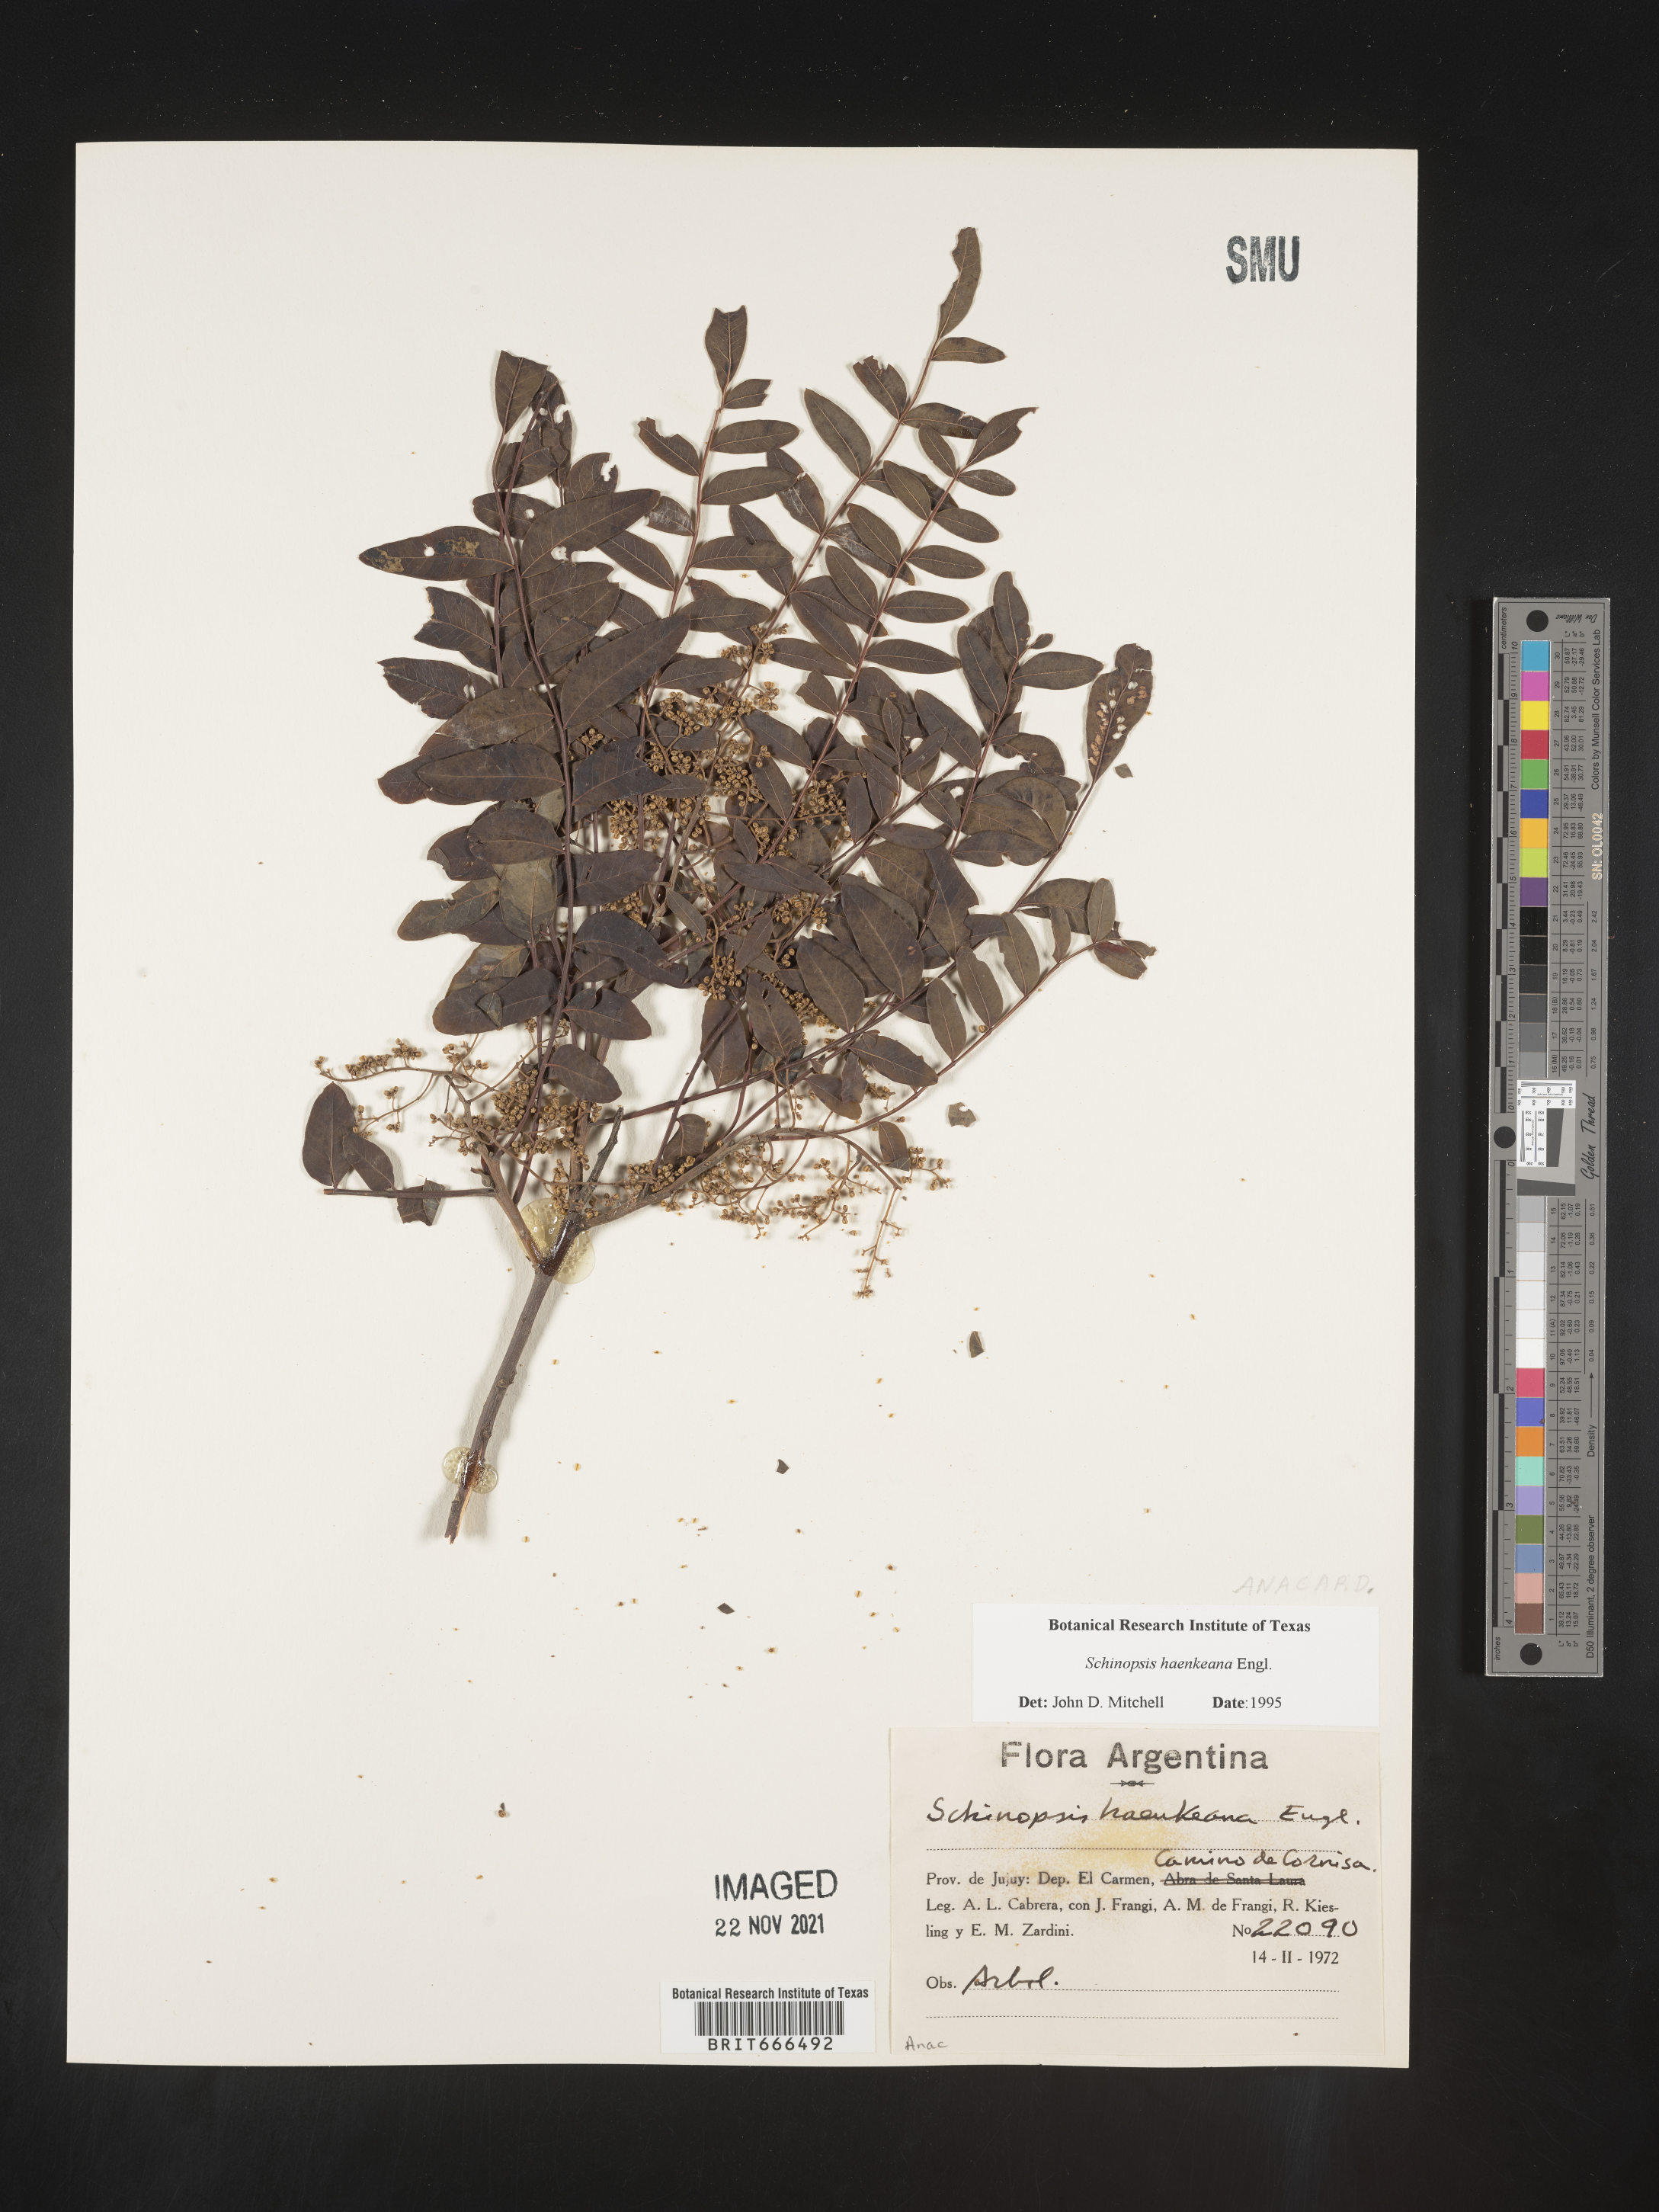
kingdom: Plantae
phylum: Tracheophyta
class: Magnoliopsida
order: Sapindales
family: Anacardiaceae
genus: Schinopsis
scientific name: Schinopsis
